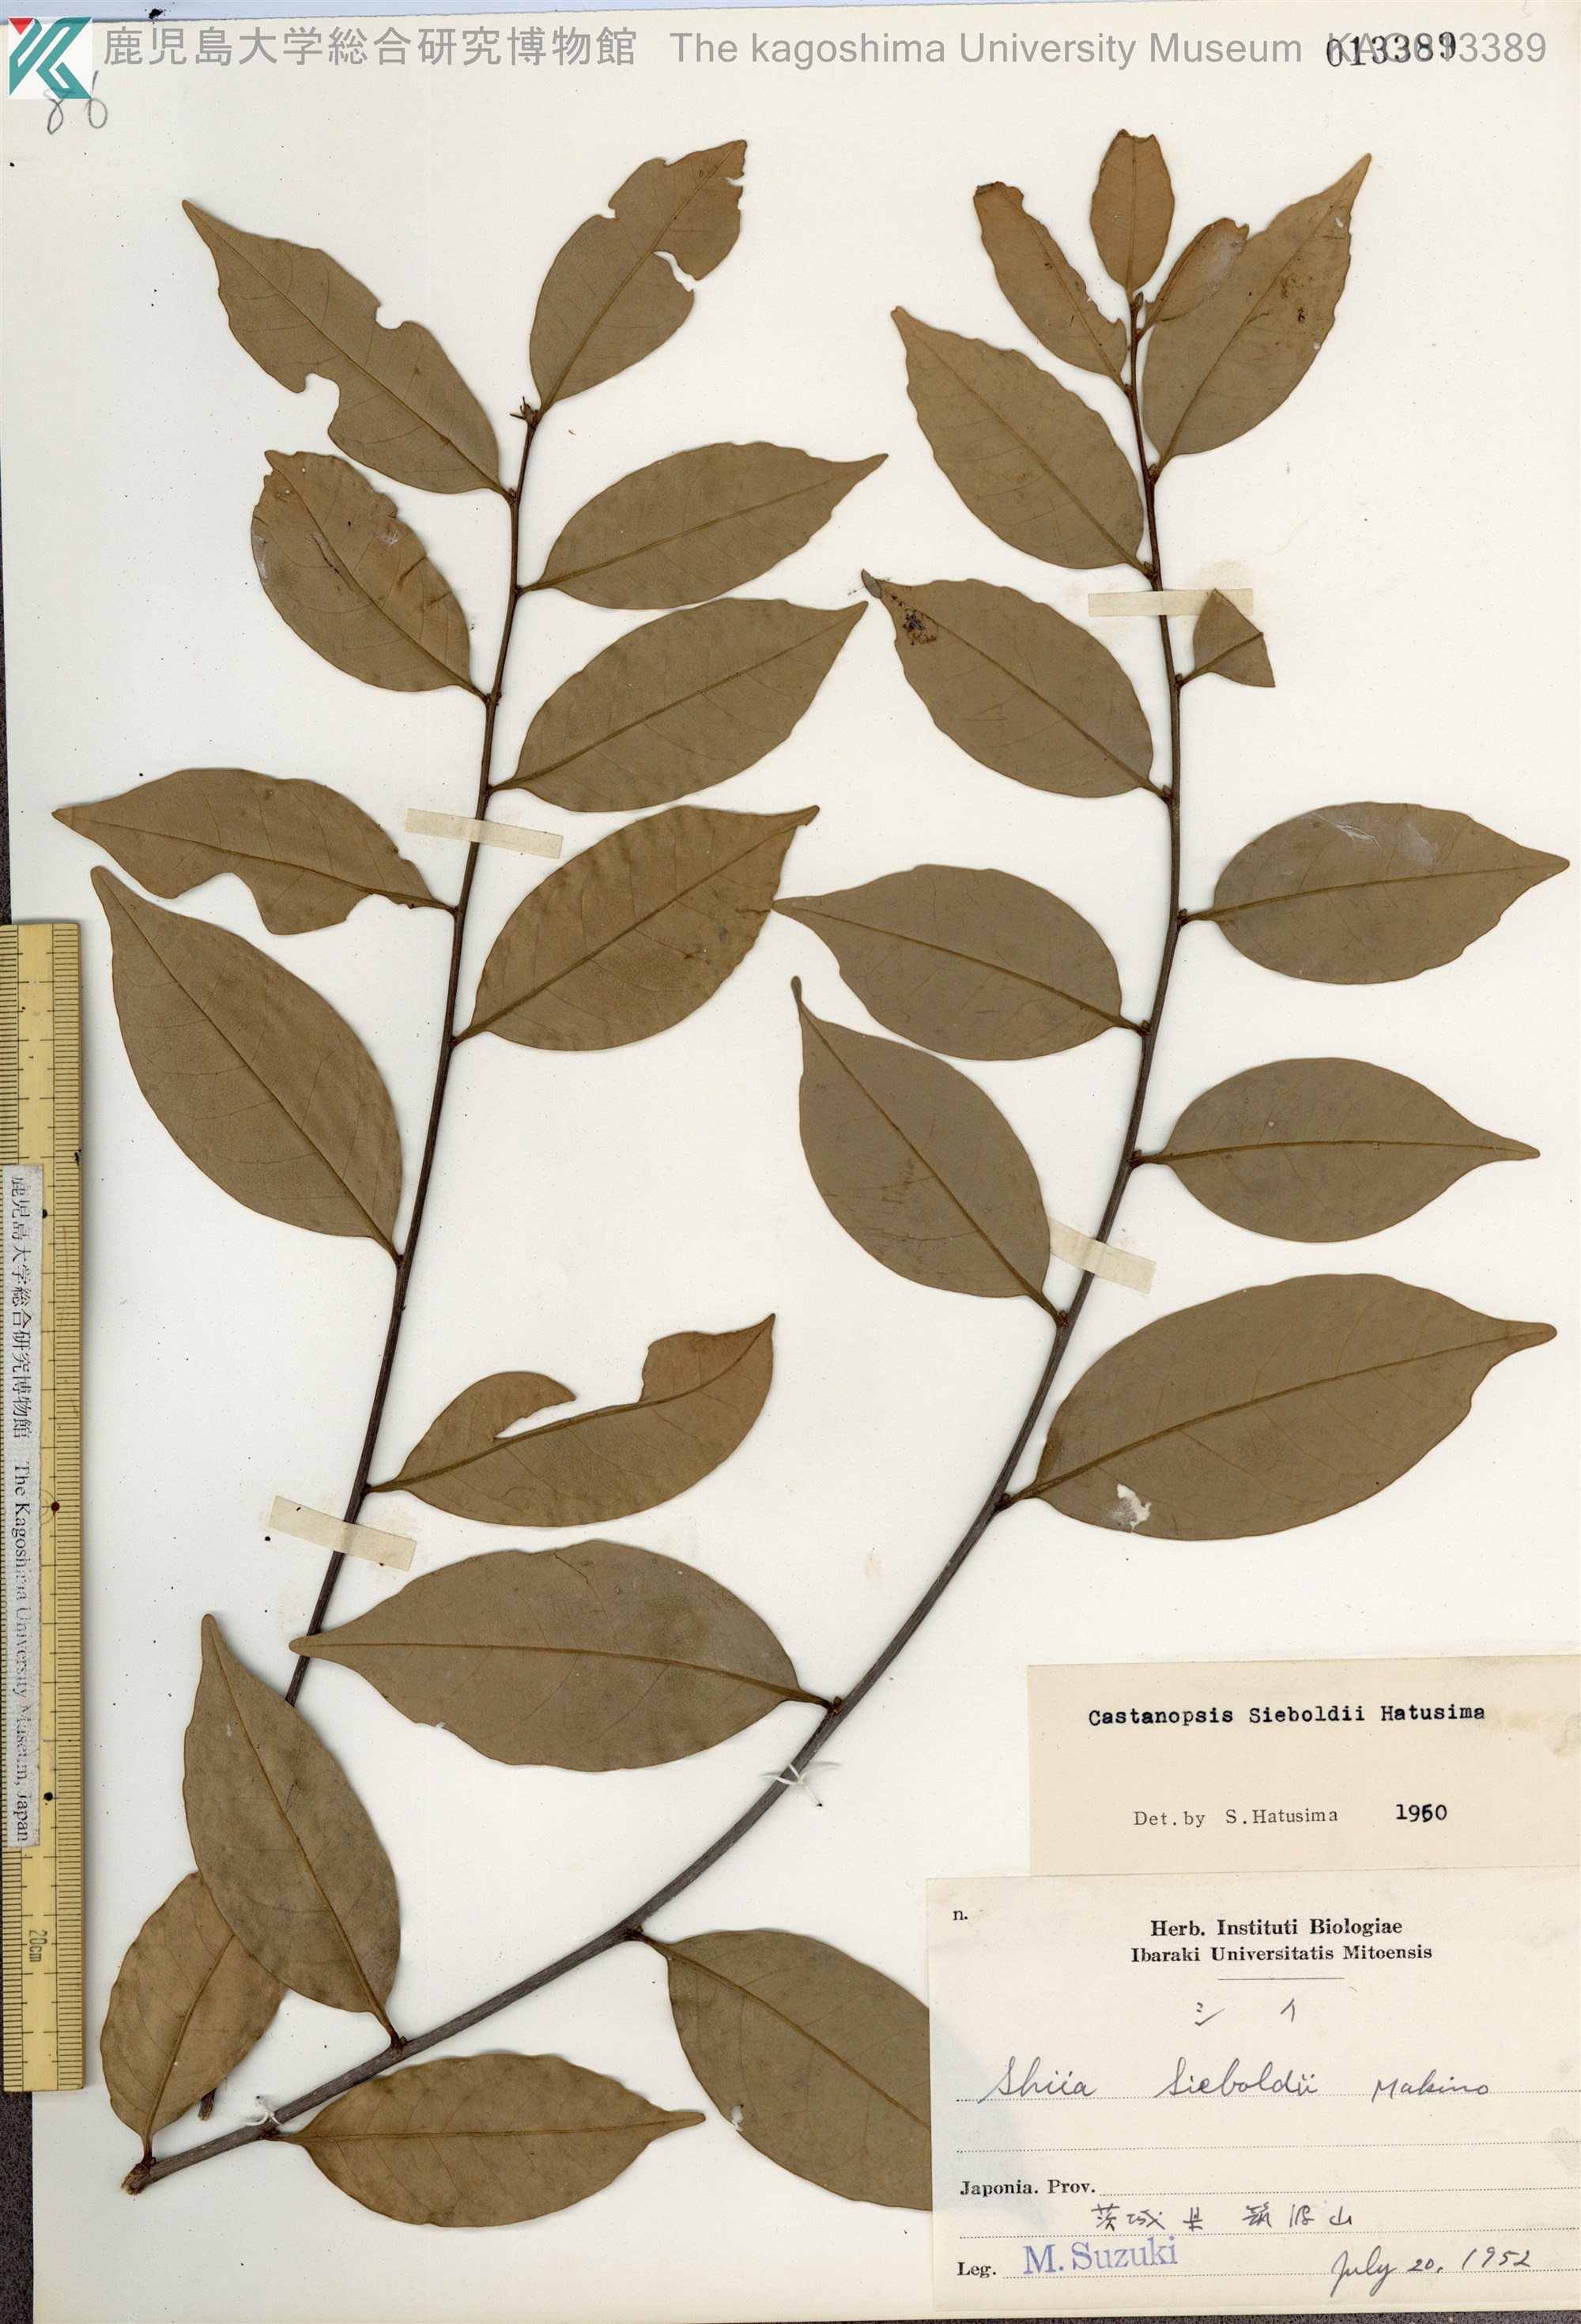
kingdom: Plantae
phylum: Tracheophyta
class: Magnoliopsida
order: Fagales
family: Fagaceae
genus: Castanopsis
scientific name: Castanopsis sieboldii
